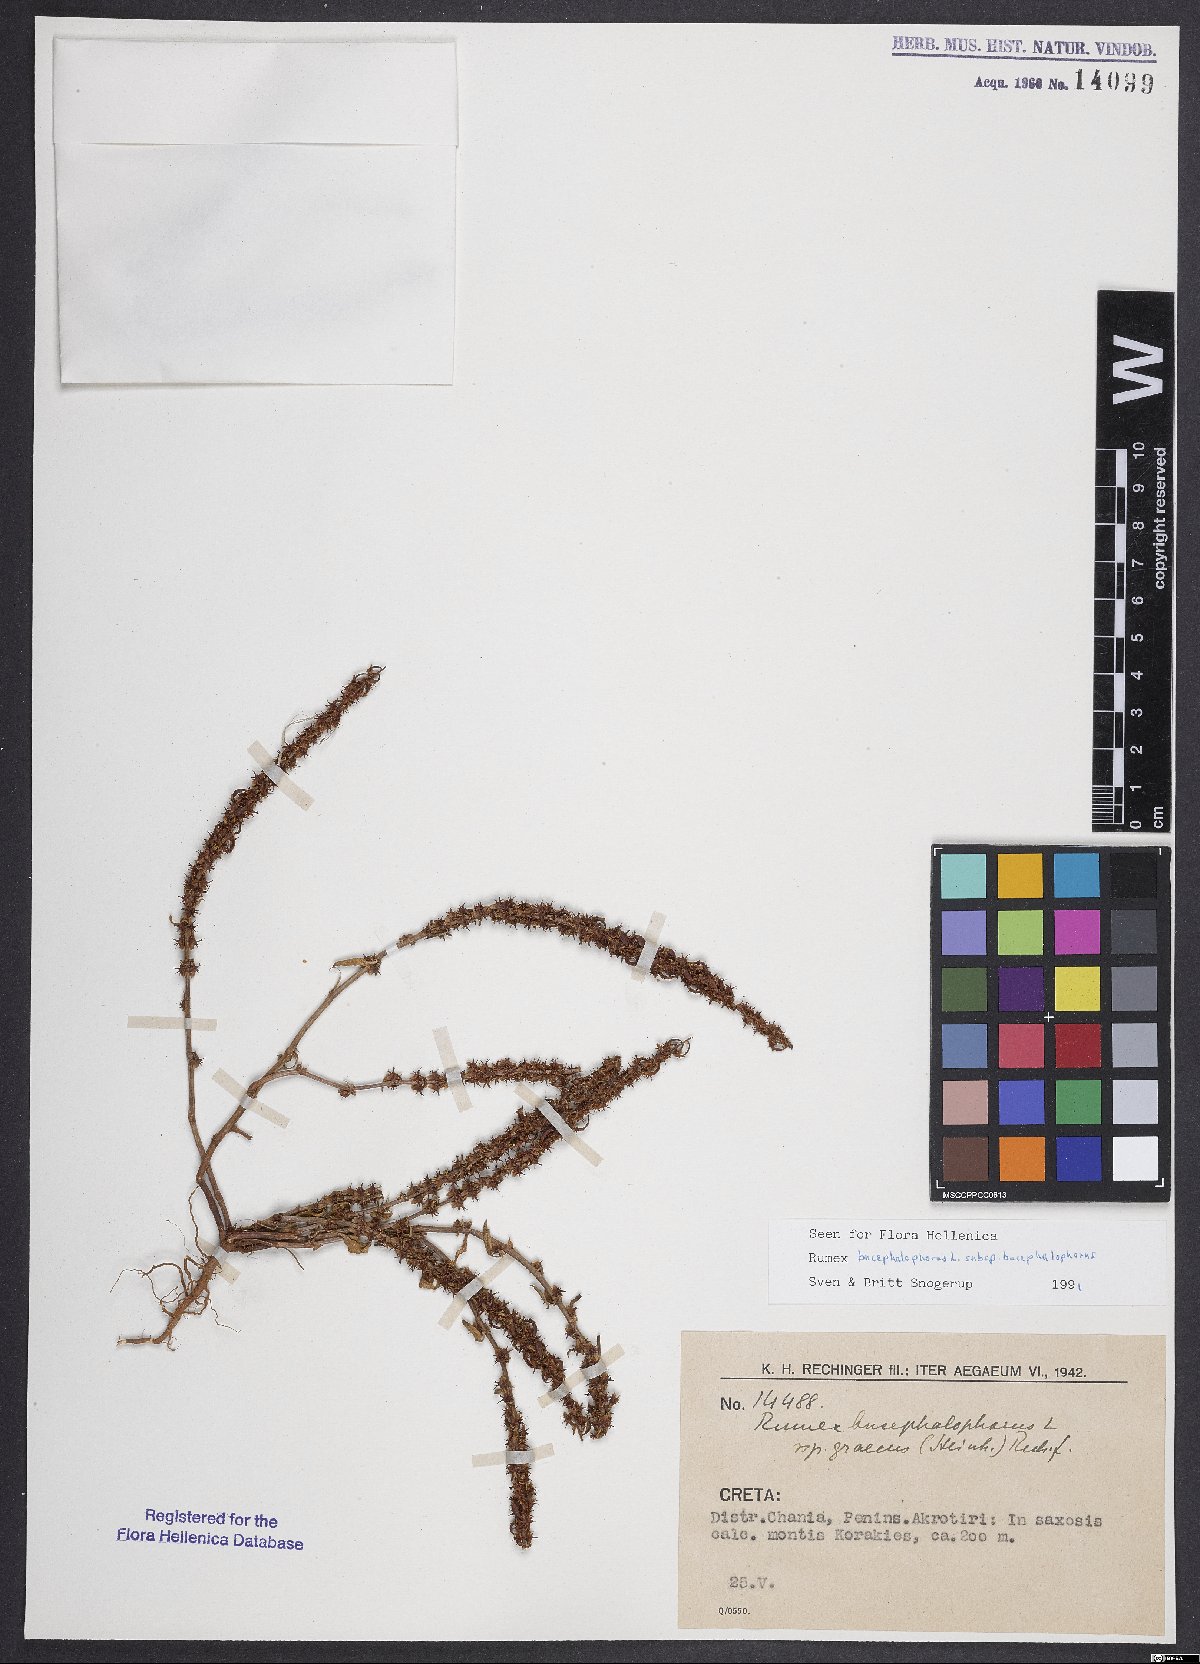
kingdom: Plantae
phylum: Tracheophyta
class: Magnoliopsida
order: Caryophyllales
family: Polygonaceae
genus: Rumex
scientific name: Rumex bucephalophorus
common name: Red dock
